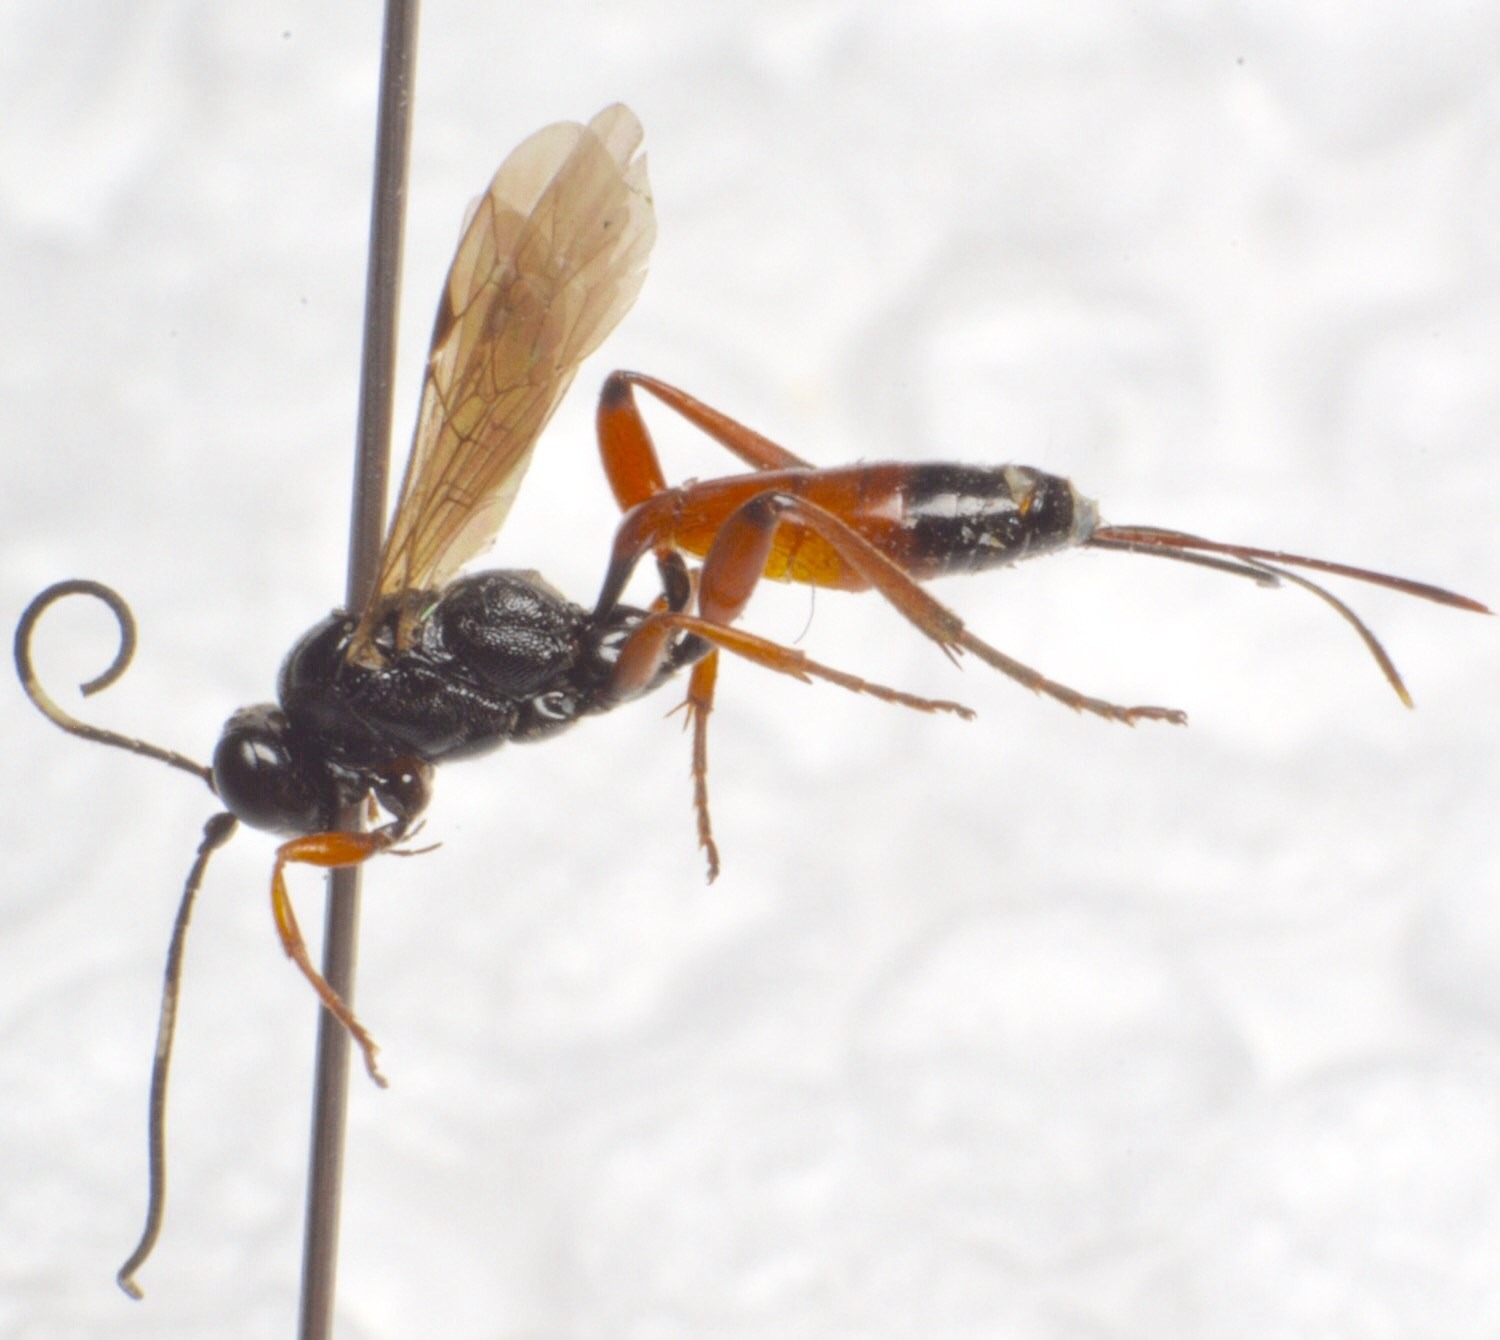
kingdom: Animalia
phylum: Arthropoda
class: Insecta
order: Hymenoptera
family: Ichneumonidae
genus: Aritranis
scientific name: Aritranis director
